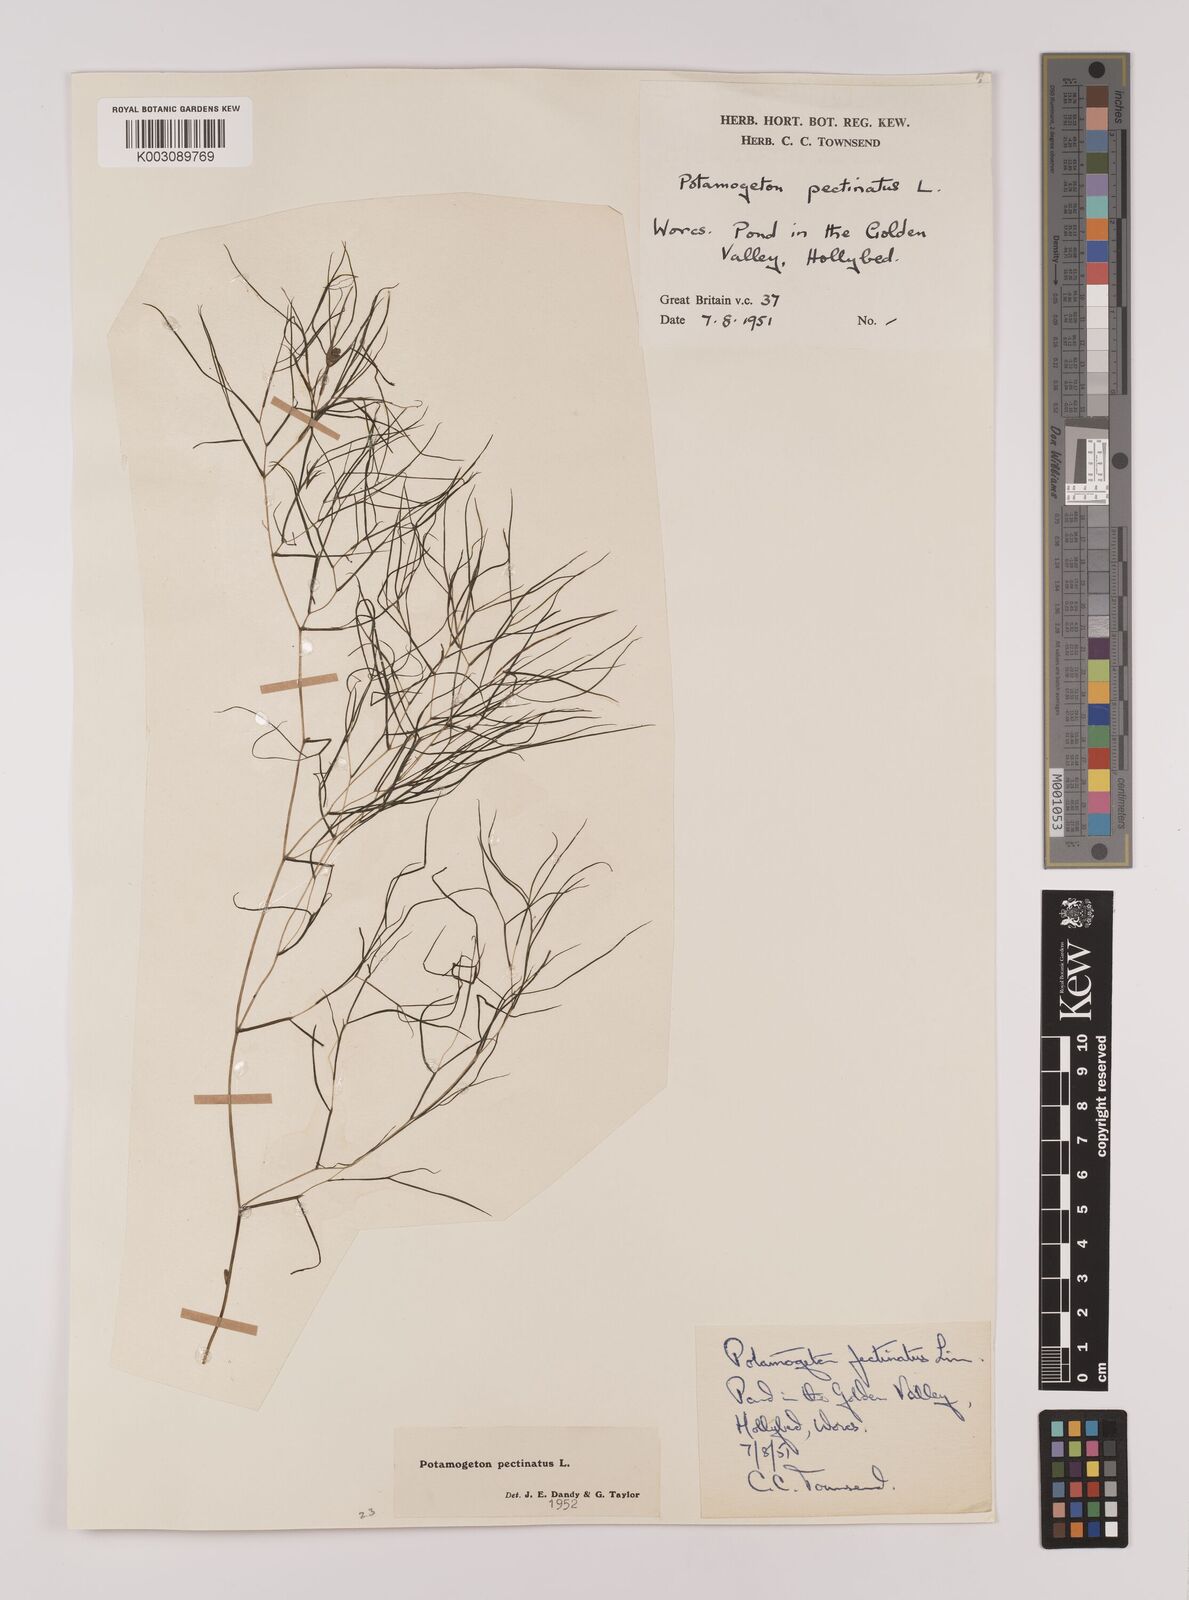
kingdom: Plantae
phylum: Tracheophyta
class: Liliopsida
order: Alismatales
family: Potamogetonaceae
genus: Stuckenia
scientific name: Stuckenia pectinata
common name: Sago pondweed
